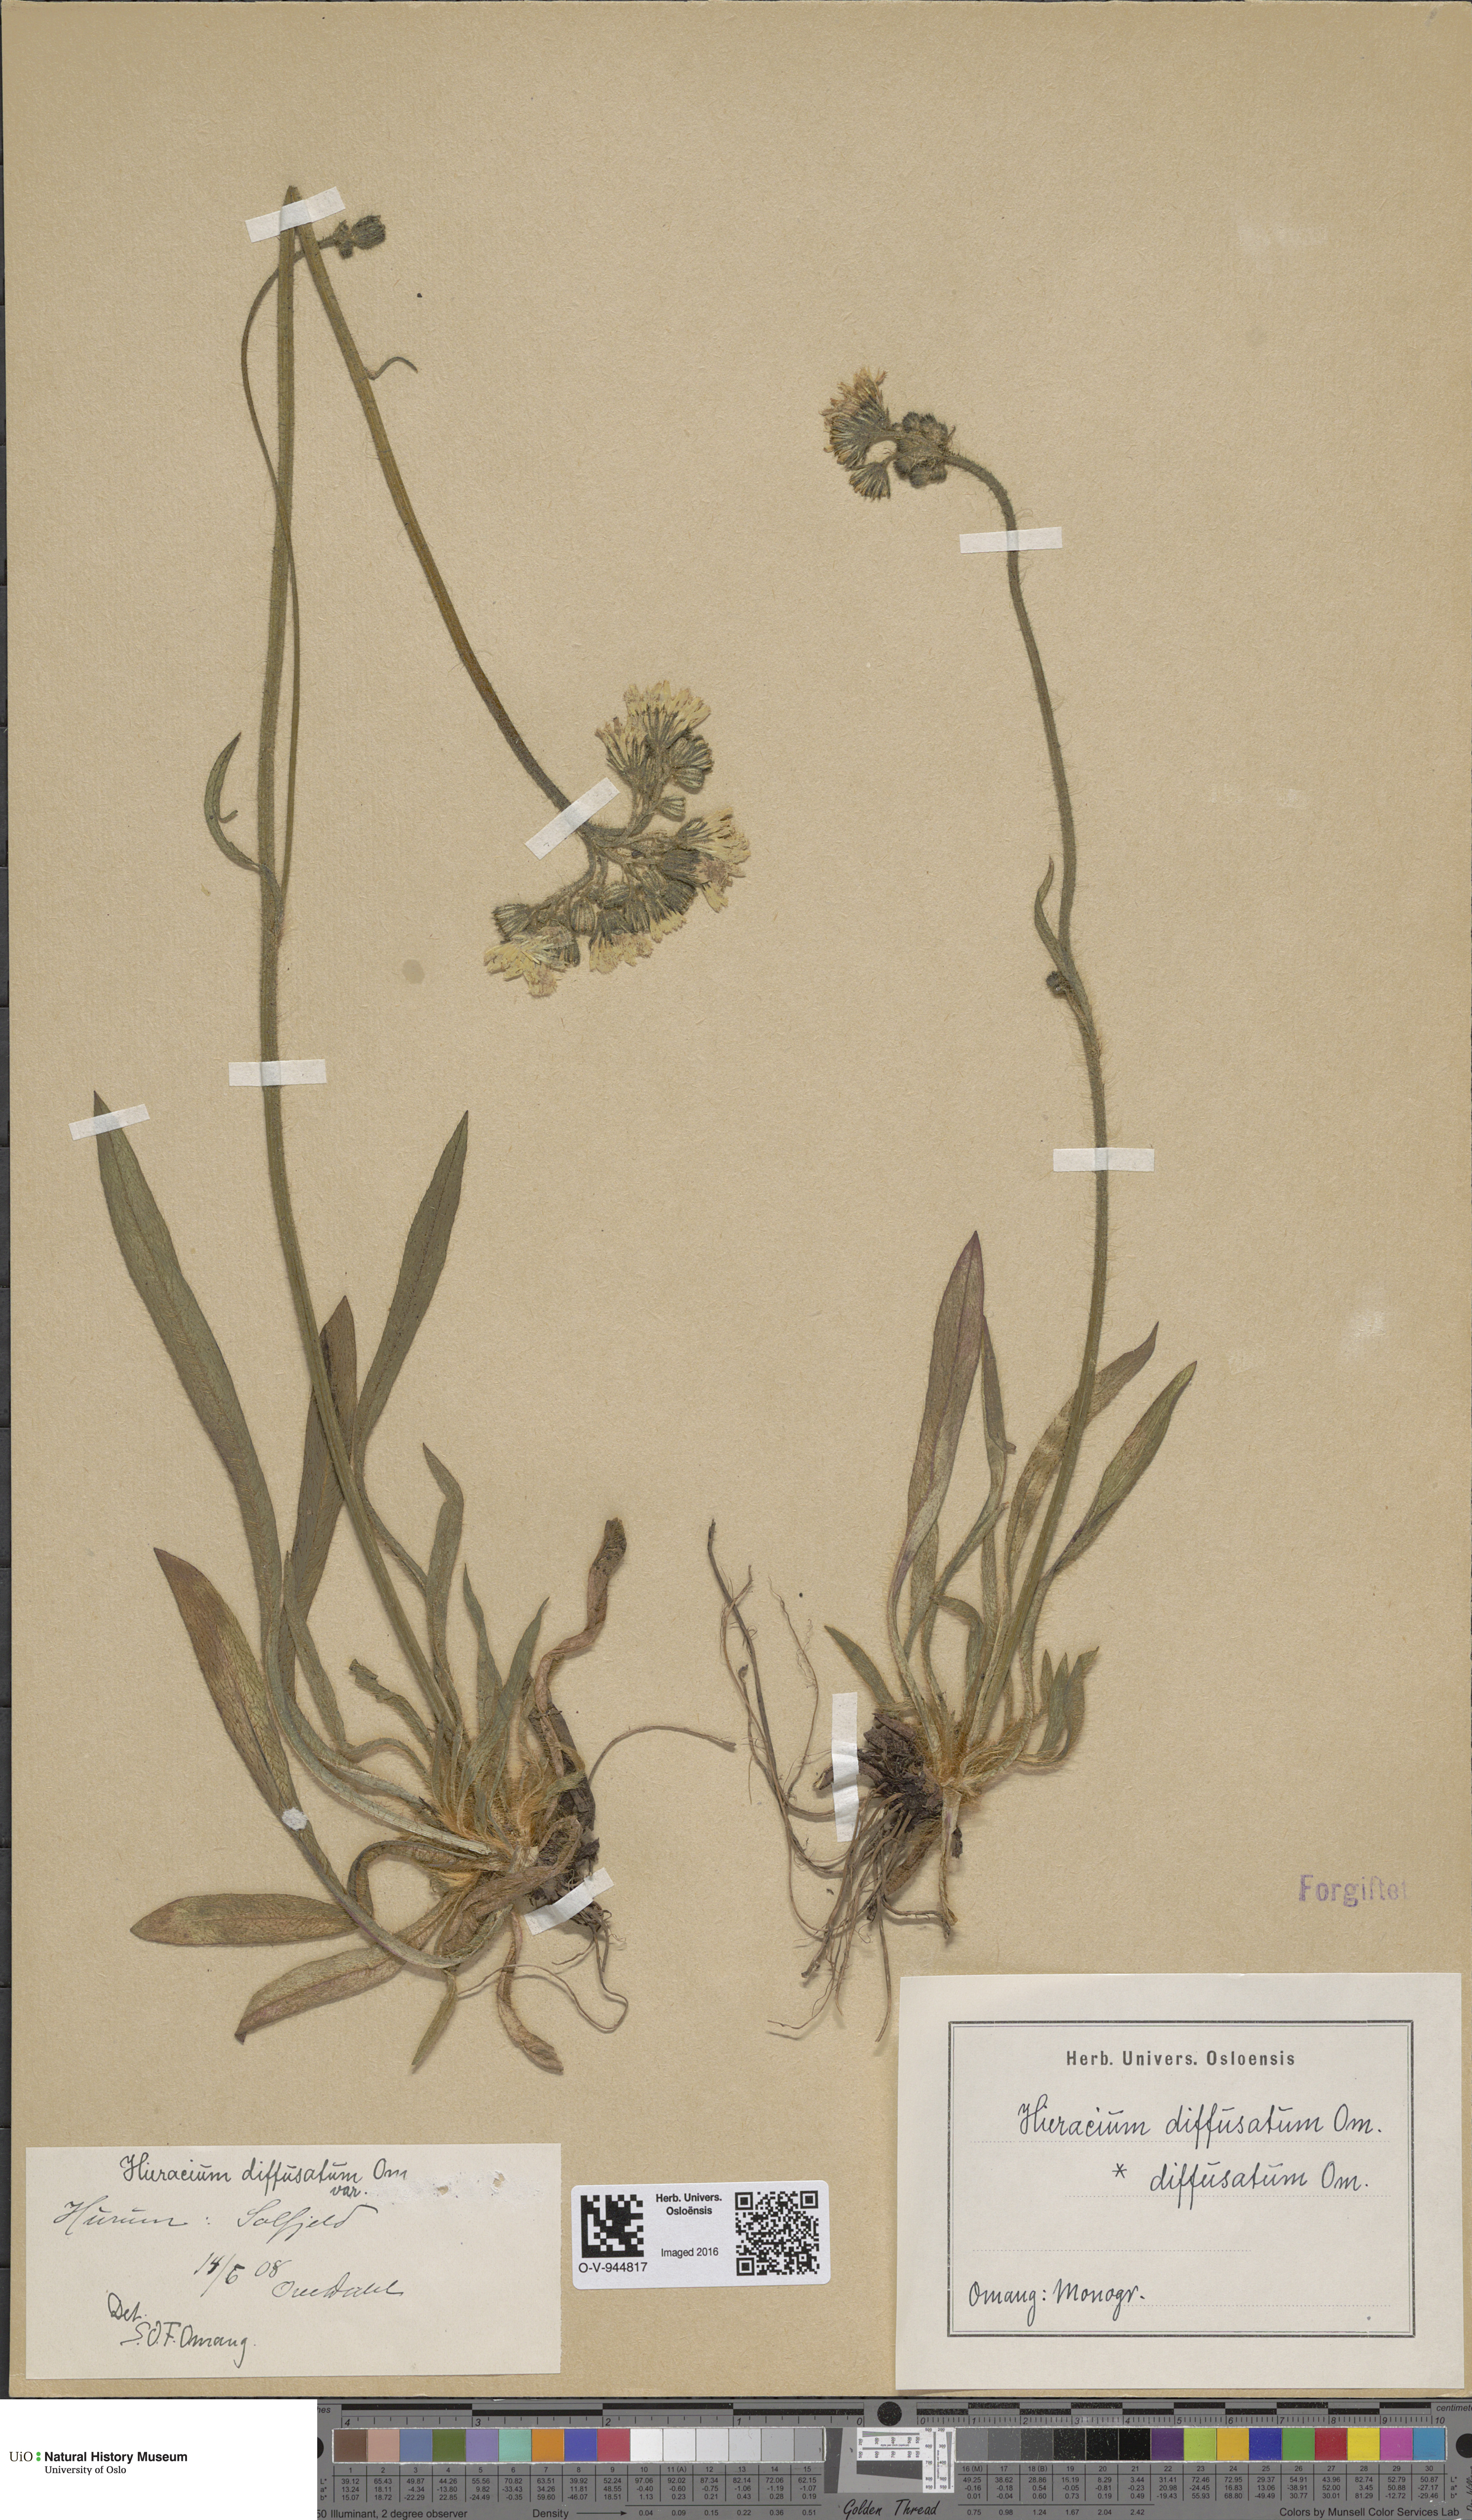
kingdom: Plantae
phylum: Tracheophyta
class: Magnoliopsida
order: Asterales
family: Asteraceae
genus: Pilosella
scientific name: Pilosella dubia
